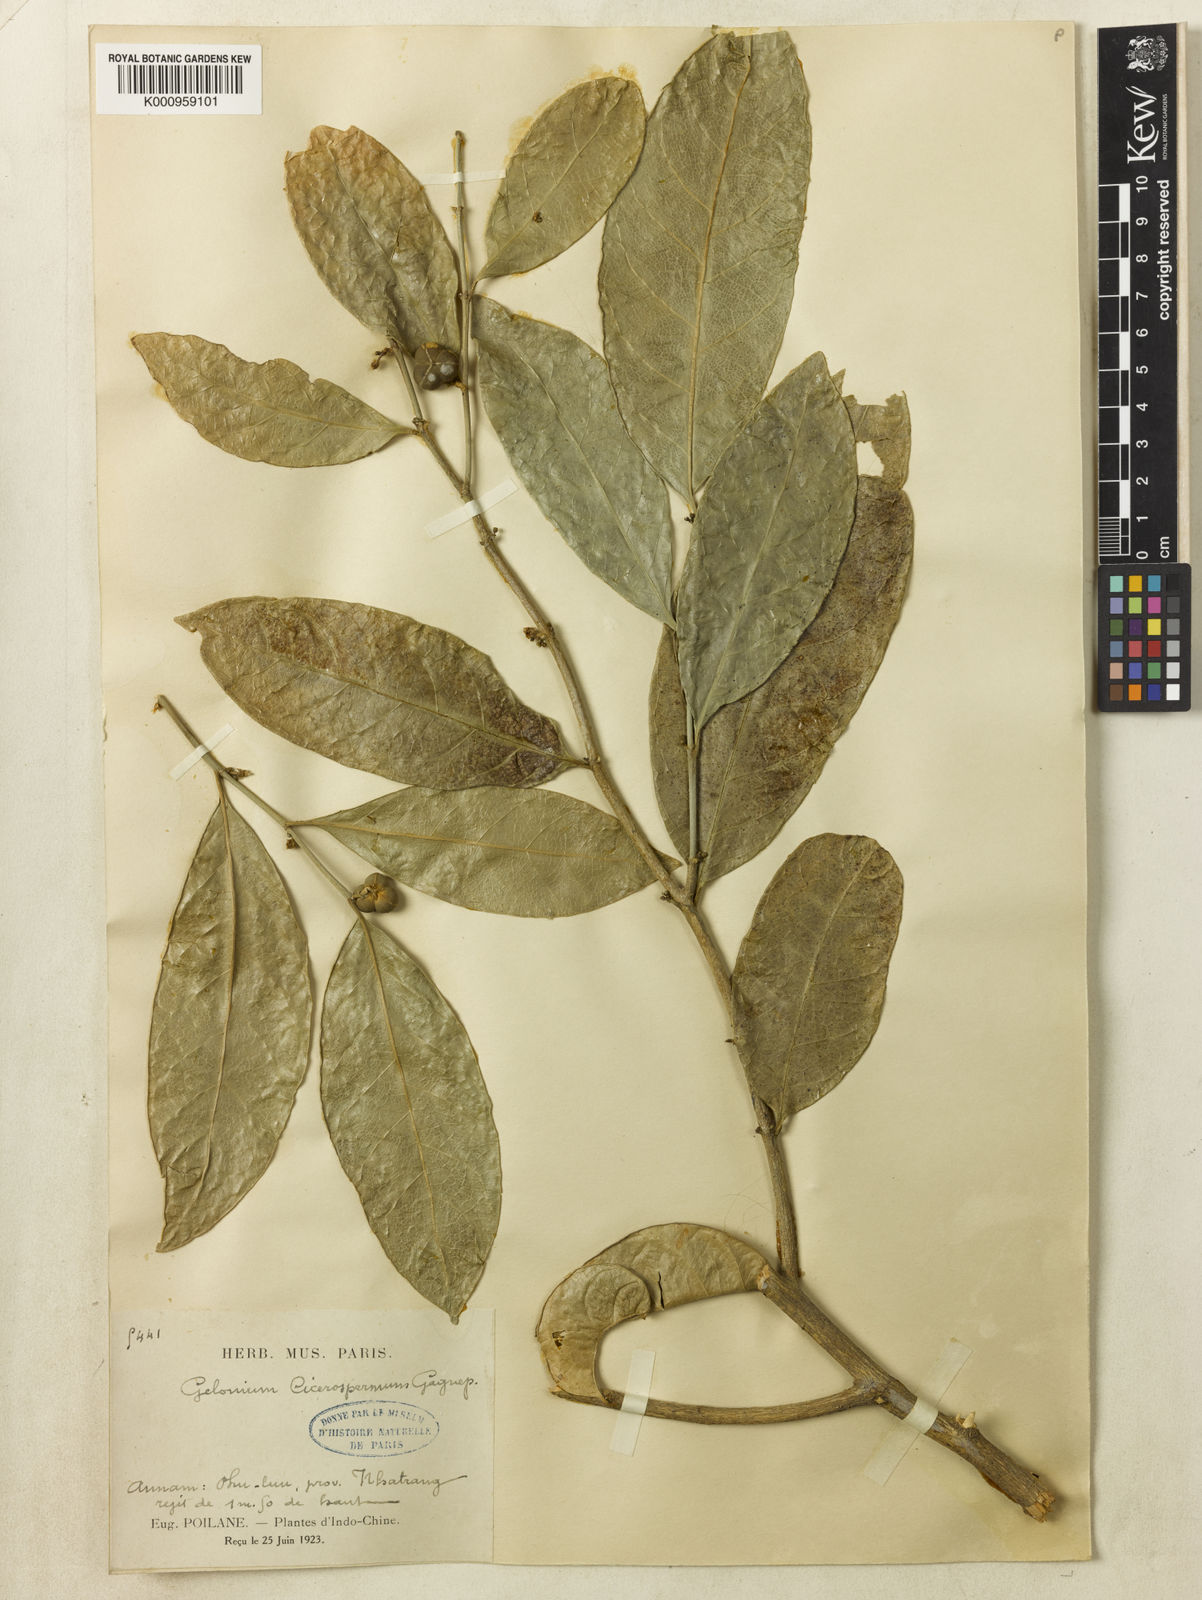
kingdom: Plantae
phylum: Tracheophyta
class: Magnoliopsida
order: Malpighiales
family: Euphorbiaceae
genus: Suregada
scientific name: Suregada cicerosperma
